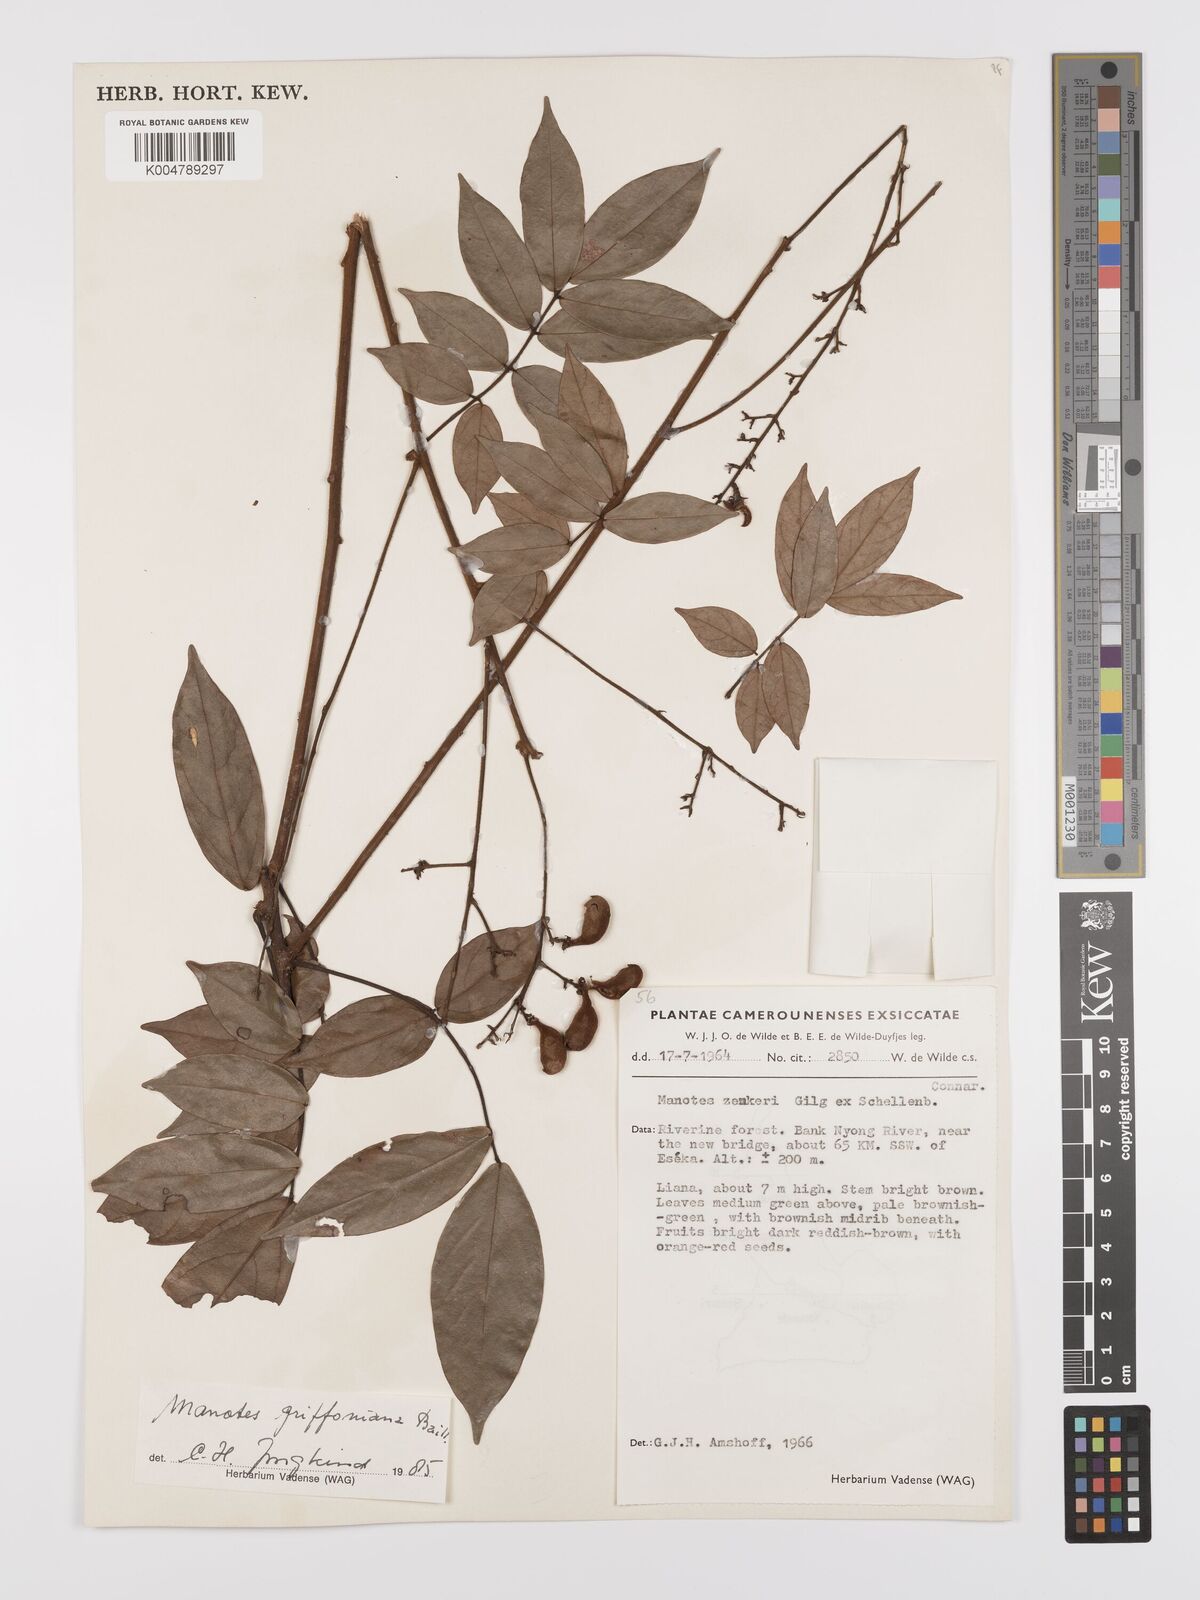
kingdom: Plantae
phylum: Tracheophyta
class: Magnoliopsida
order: Oxalidales
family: Connaraceae
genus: Manotes
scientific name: Manotes griffoniana
